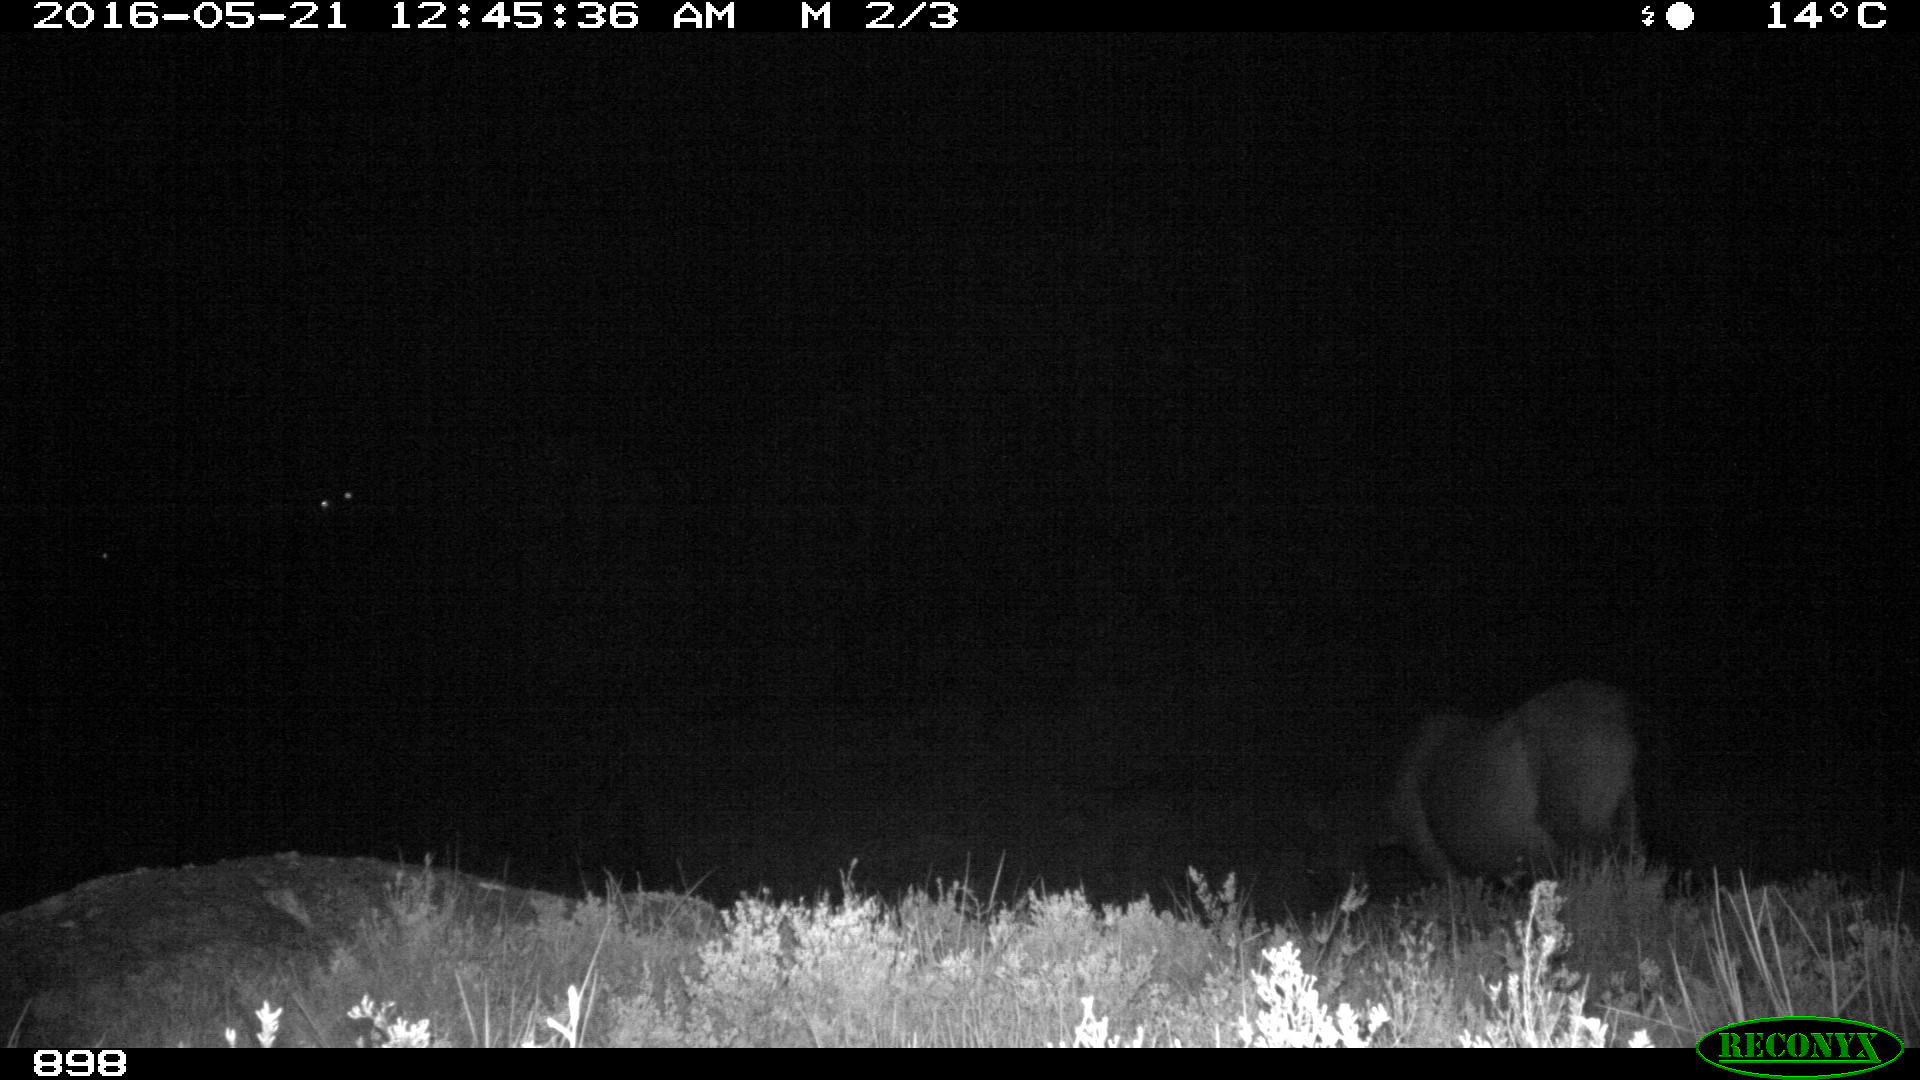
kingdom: Animalia
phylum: Chordata
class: Mammalia
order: Perissodactyla
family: Equidae
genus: Equus
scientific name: Equus caballus
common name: Horse
